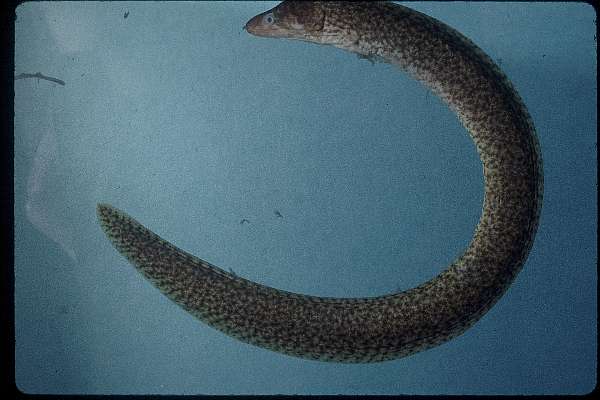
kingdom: Animalia
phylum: Chordata
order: Anguilliformes
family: Muraenidae
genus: Gymnothorax
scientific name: Gymnothorax chilospilus
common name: Lipspot moray
